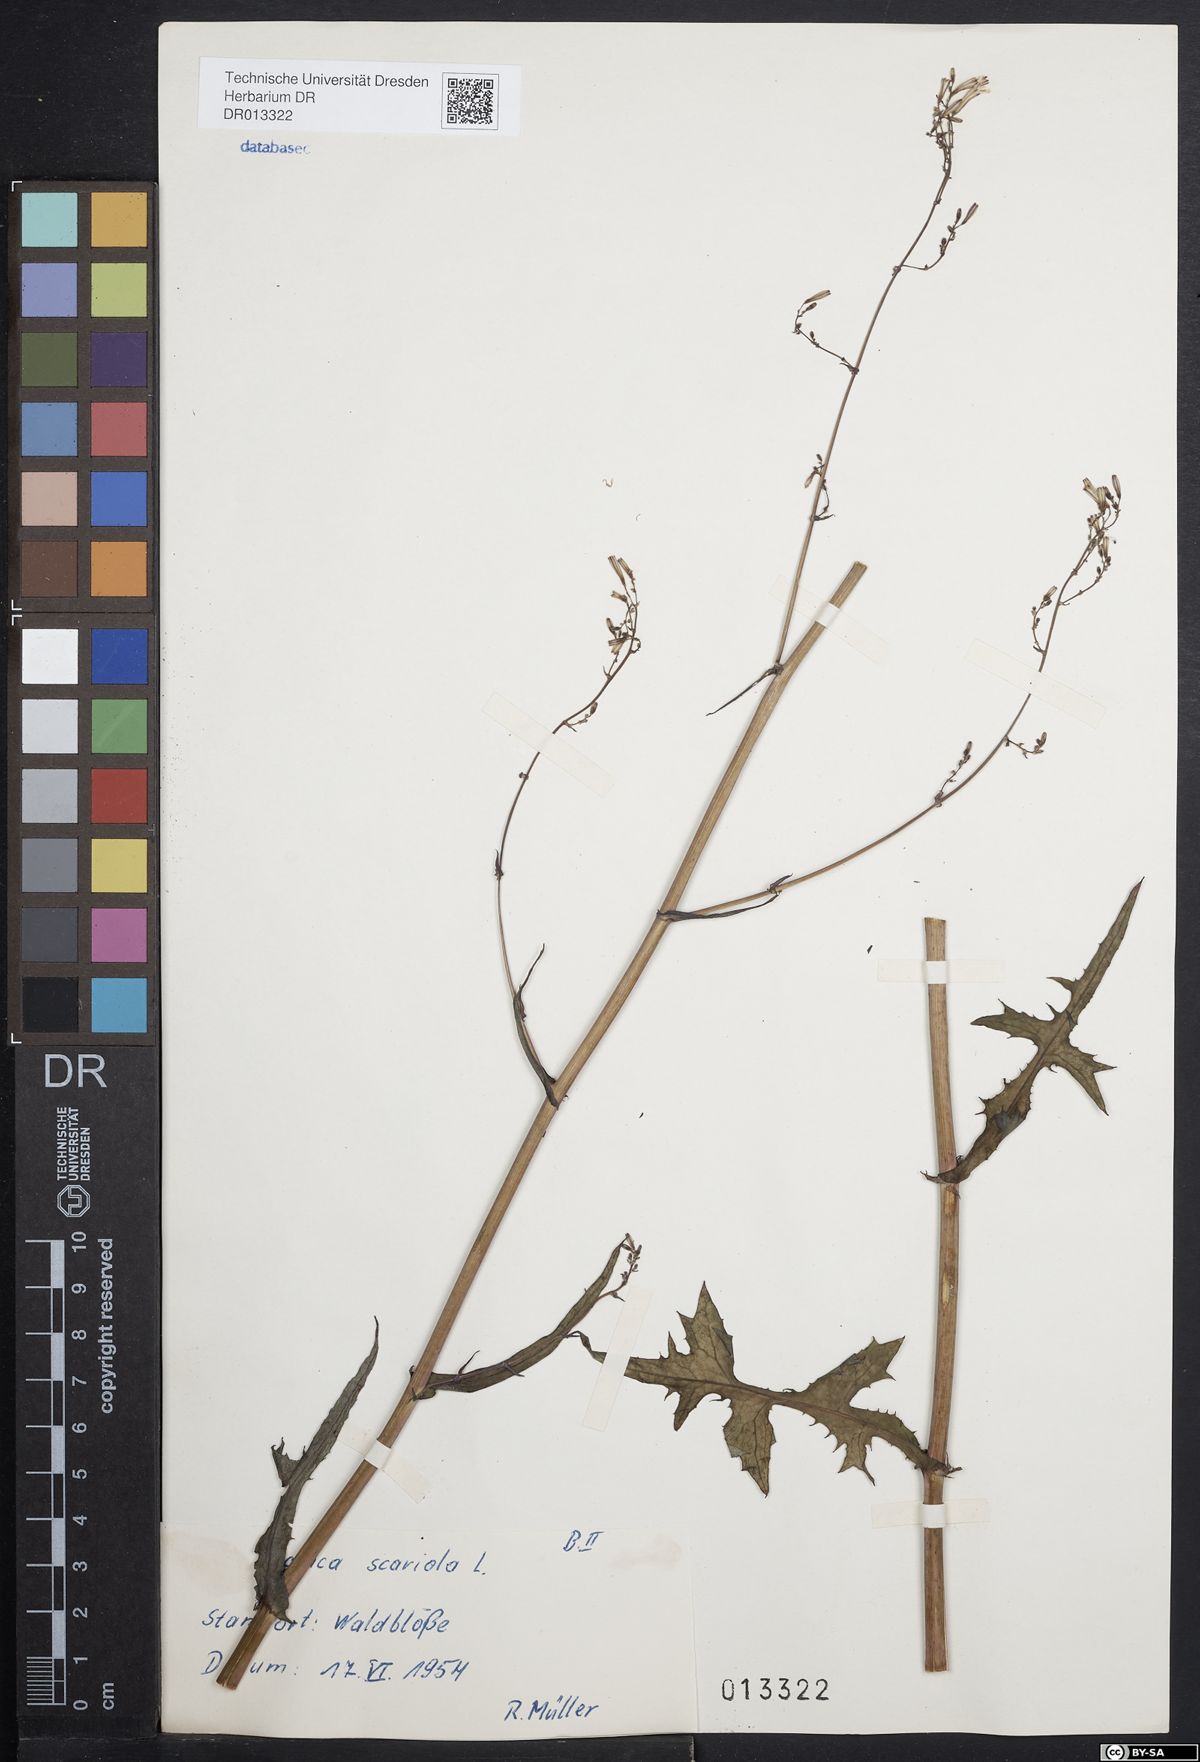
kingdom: Plantae
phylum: Tracheophyta
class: Magnoliopsida
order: Asterales
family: Asteraceae
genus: Mycelis
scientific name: Mycelis muralis
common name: Wall lettuce
